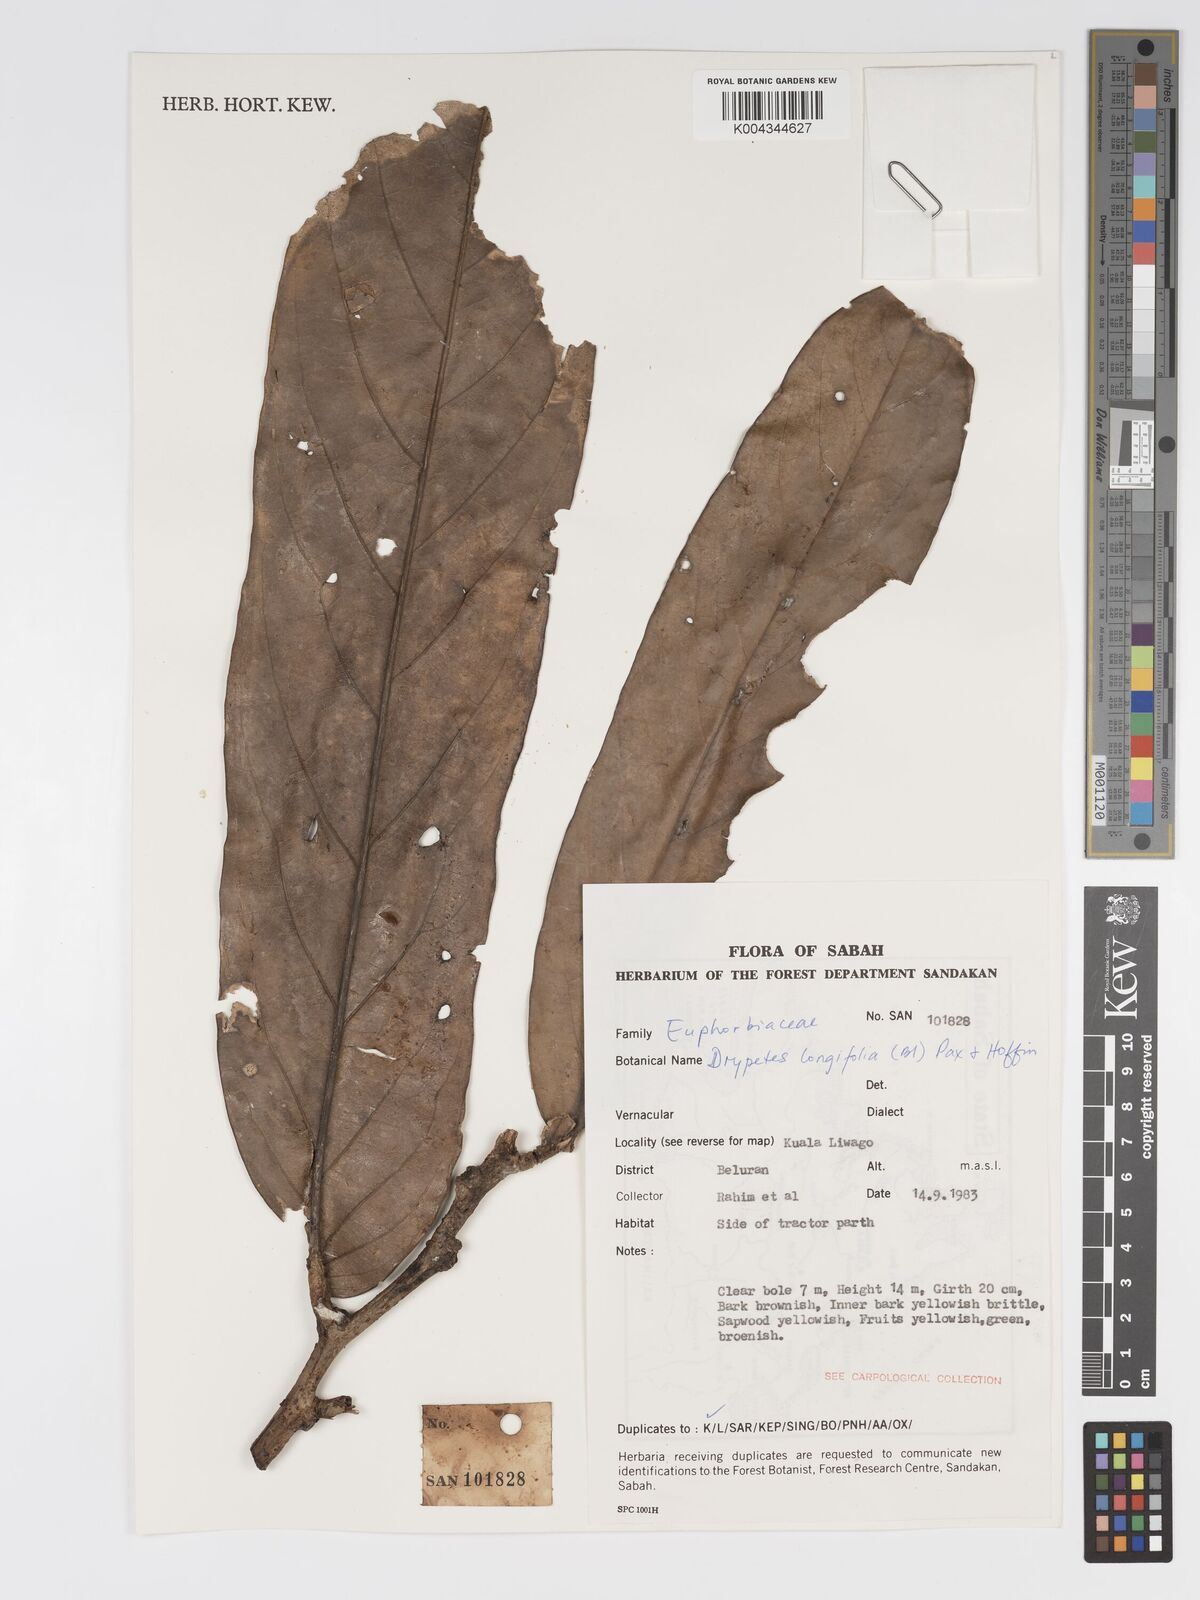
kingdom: Plantae
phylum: Tracheophyta
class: Magnoliopsida
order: Malpighiales
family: Putranjivaceae
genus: Drypetes
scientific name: Drypetes longifolia
